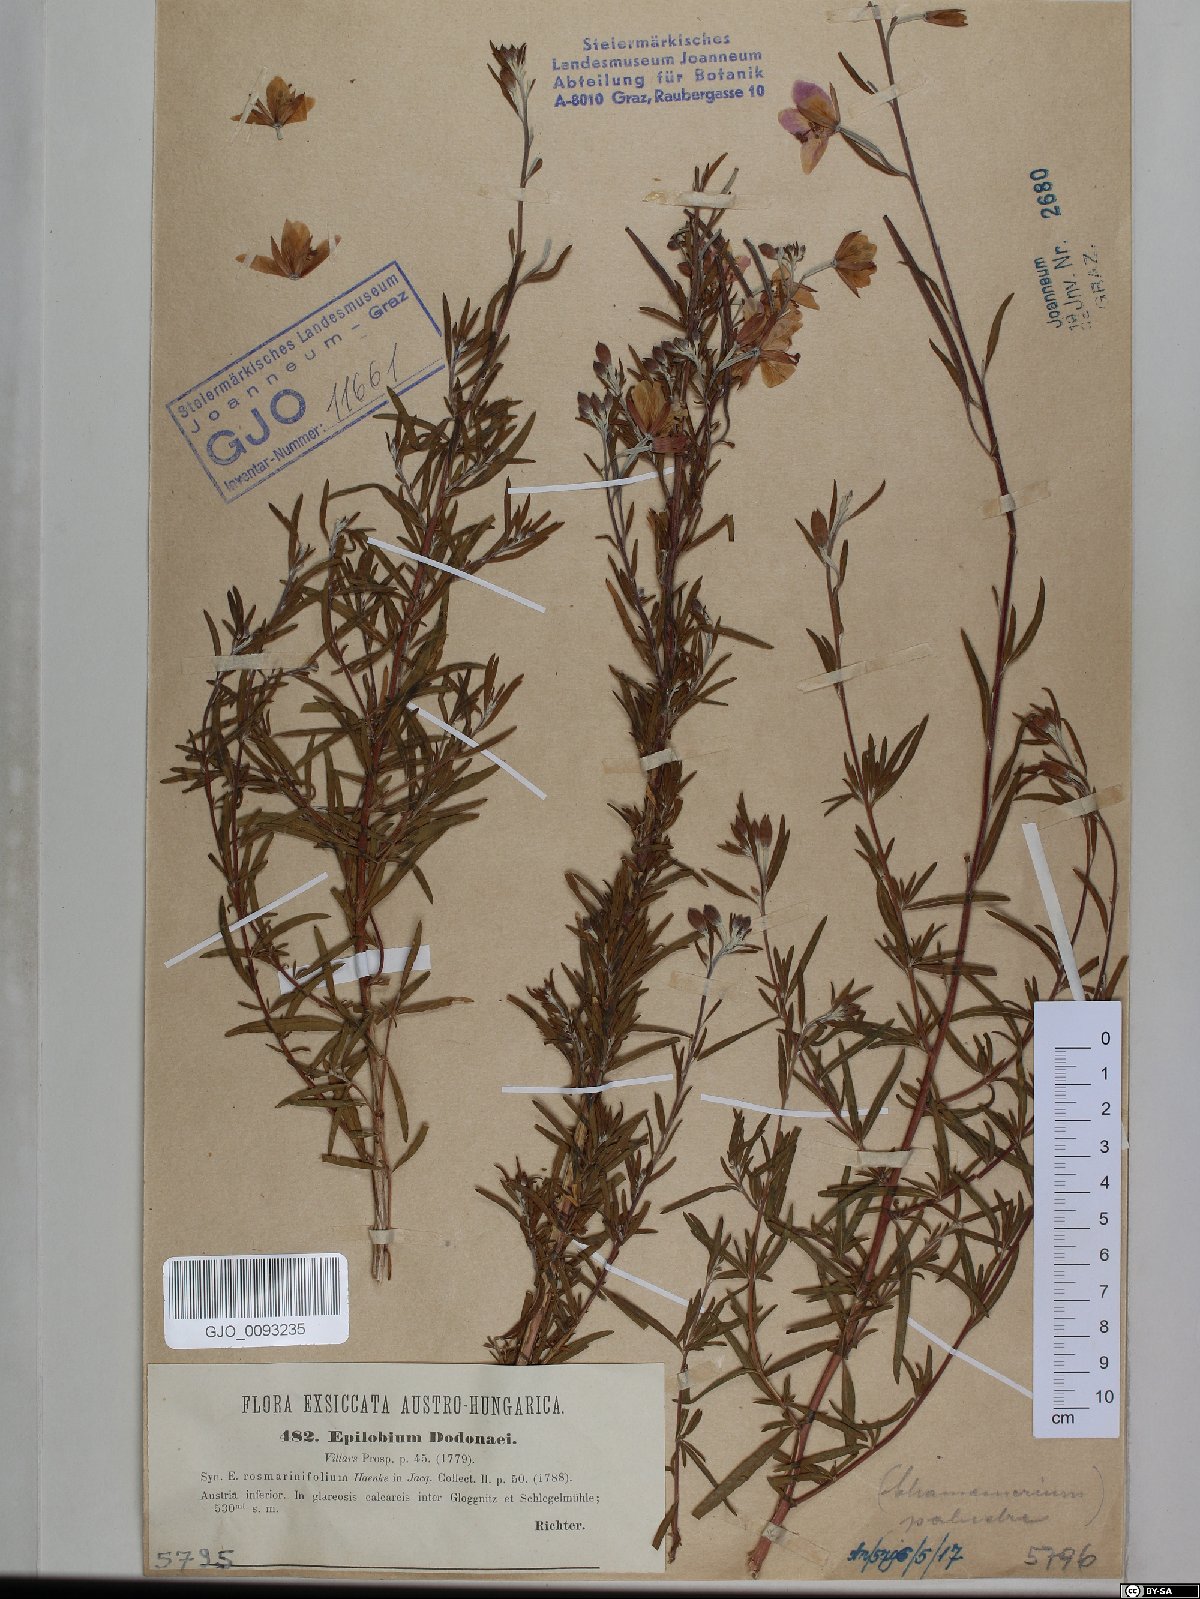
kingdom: Plantae
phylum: Tracheophyta
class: Magnoliopsida
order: Myrtales
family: Onagraceae
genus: Chamaenerion
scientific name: Chamaenerion dodonaei
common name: Rosemary-leaved willowherb
